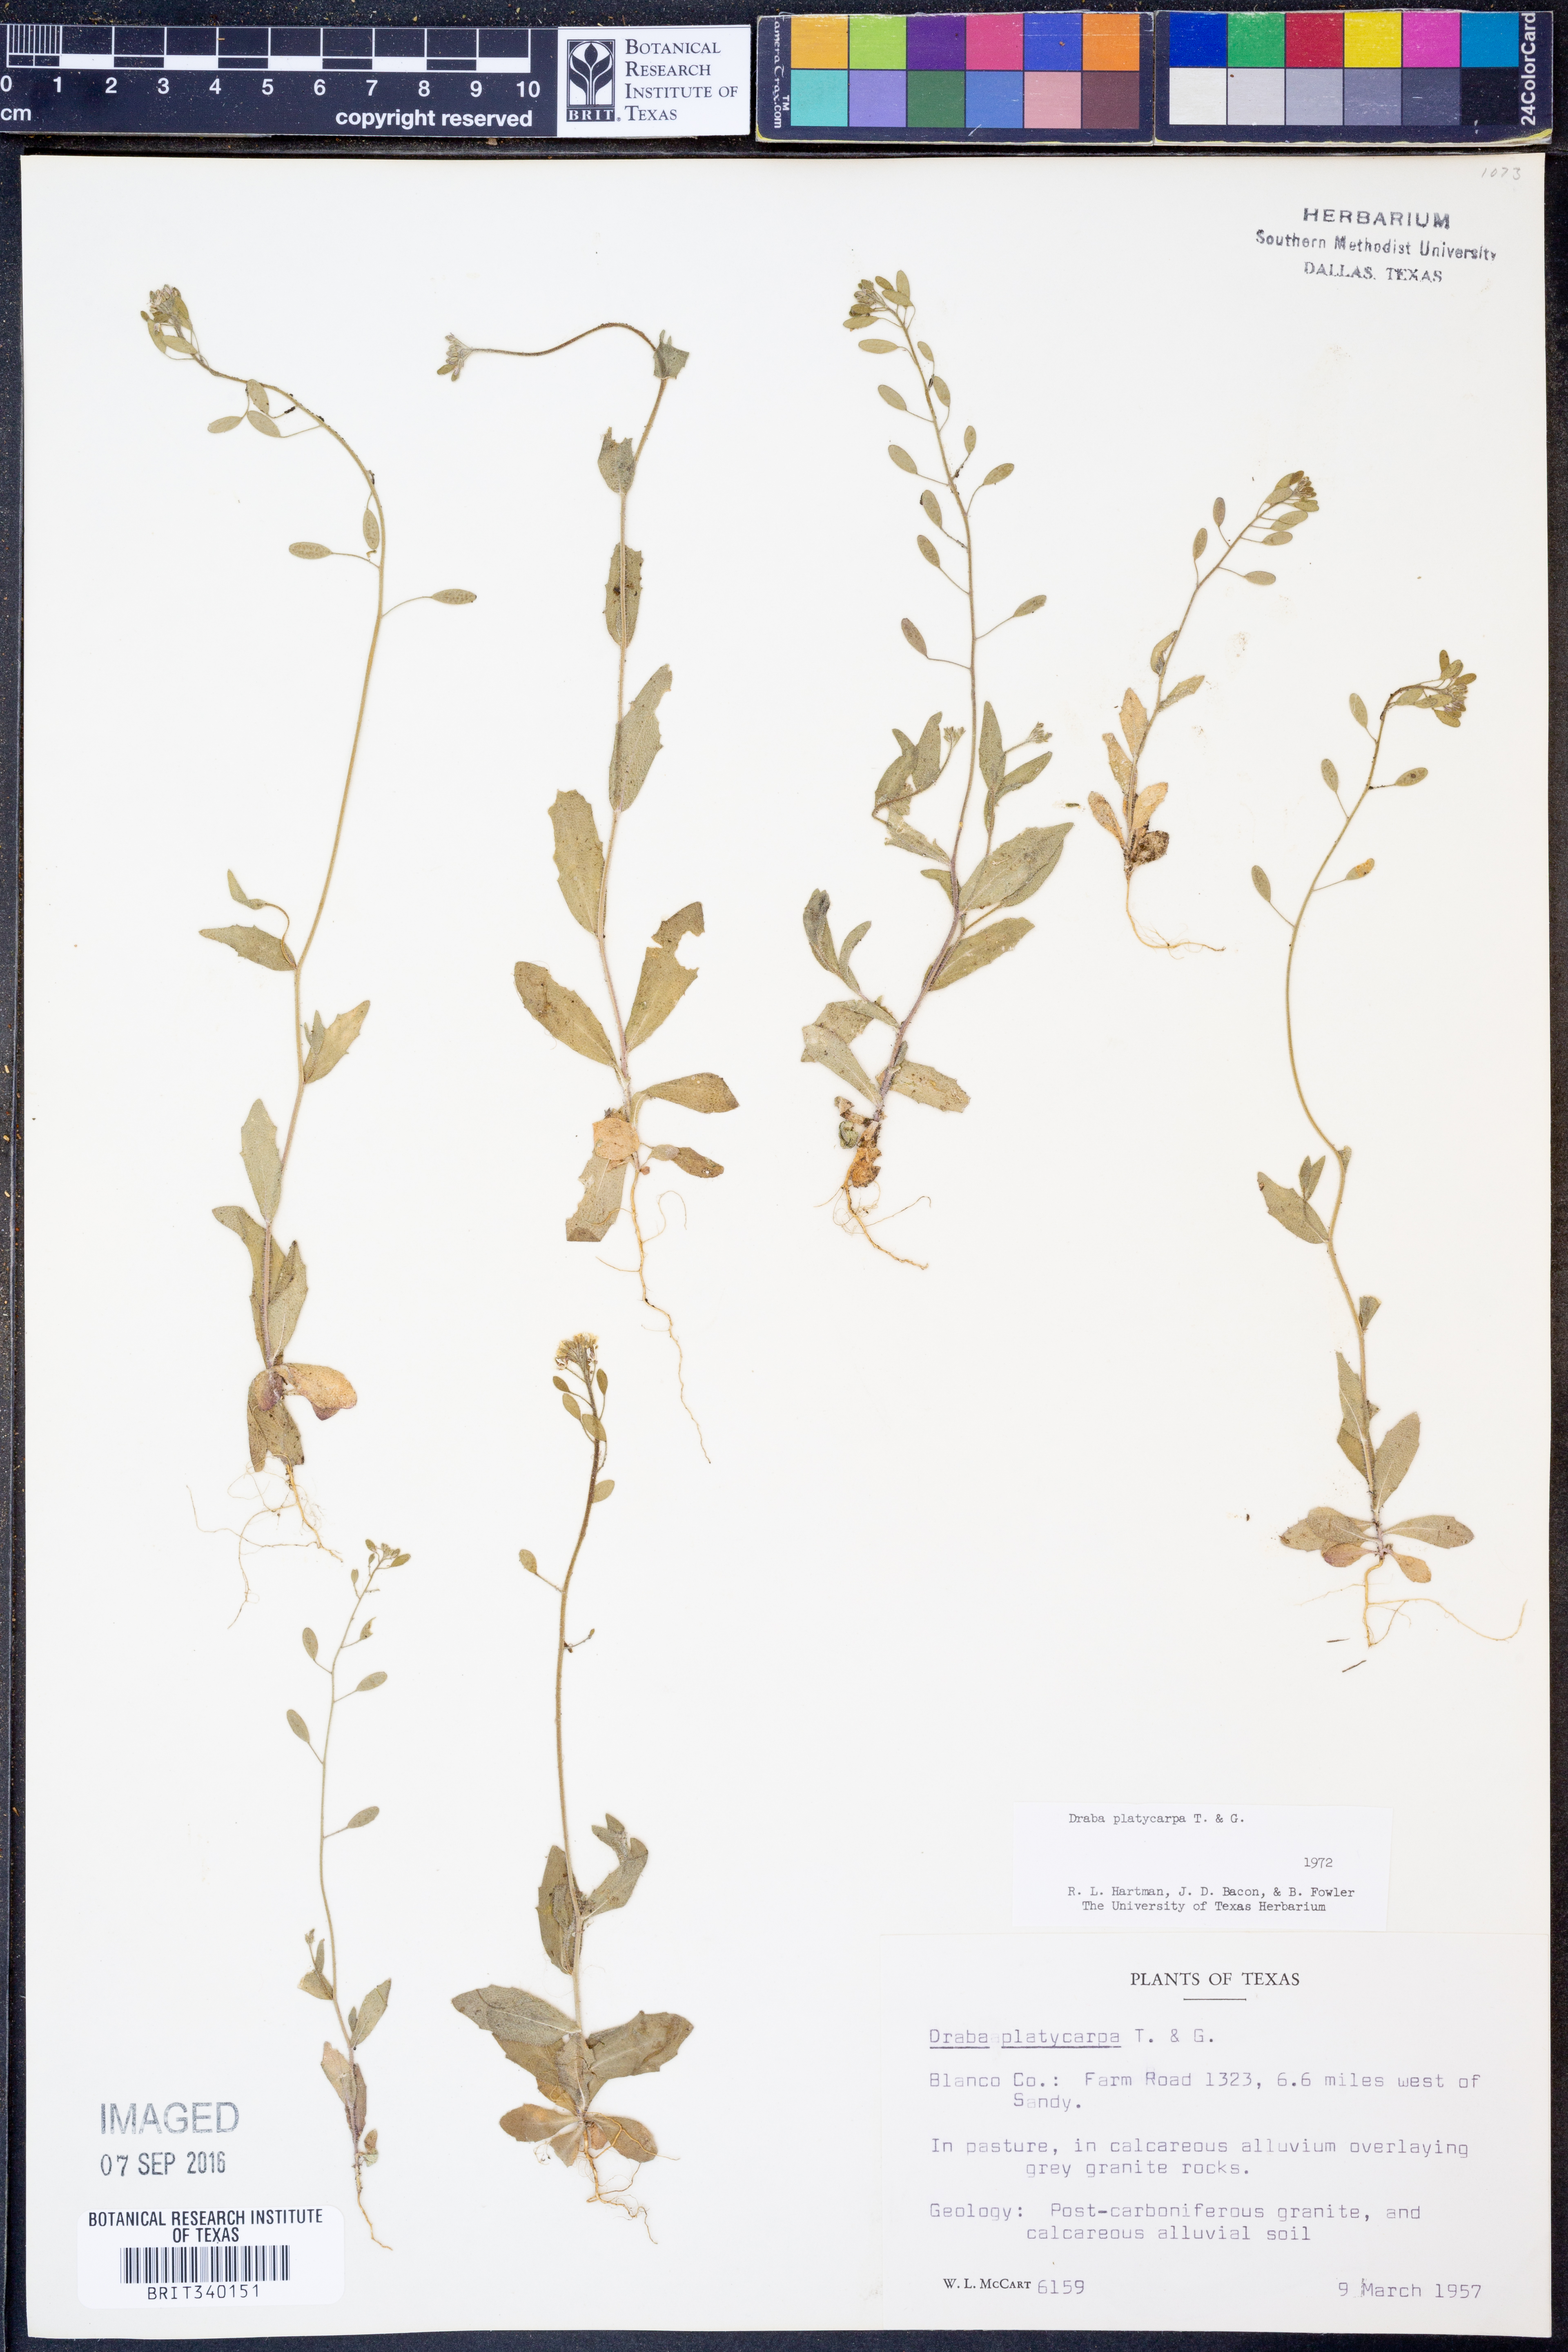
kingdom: Plantae
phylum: Tracheophyta
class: Magnoliopsida
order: Brassicales
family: Brassicaceae
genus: Tomostima
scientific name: Tomostima platycarpa
